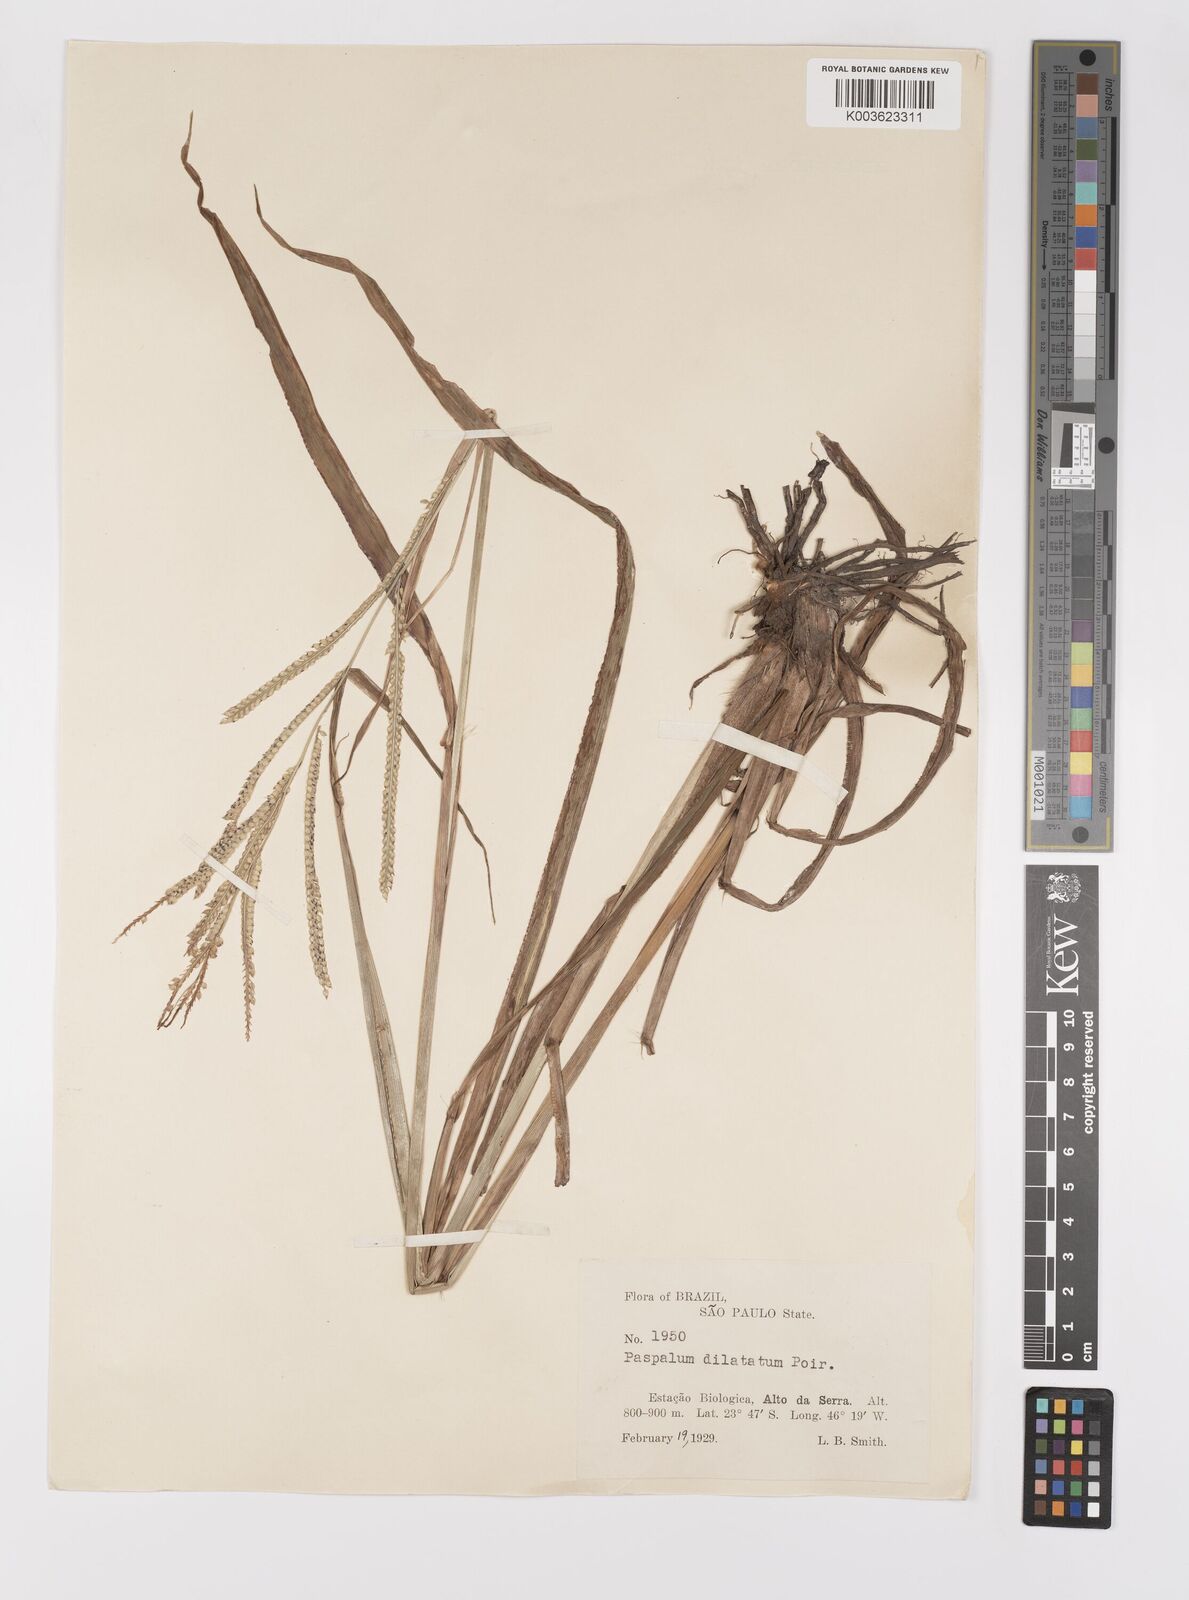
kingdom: Plantae
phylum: Tracheophyta
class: Liliopsida
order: Poales
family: Poaceae
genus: Paspalum
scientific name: Paspalum dilatatum
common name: Dallisgrass
